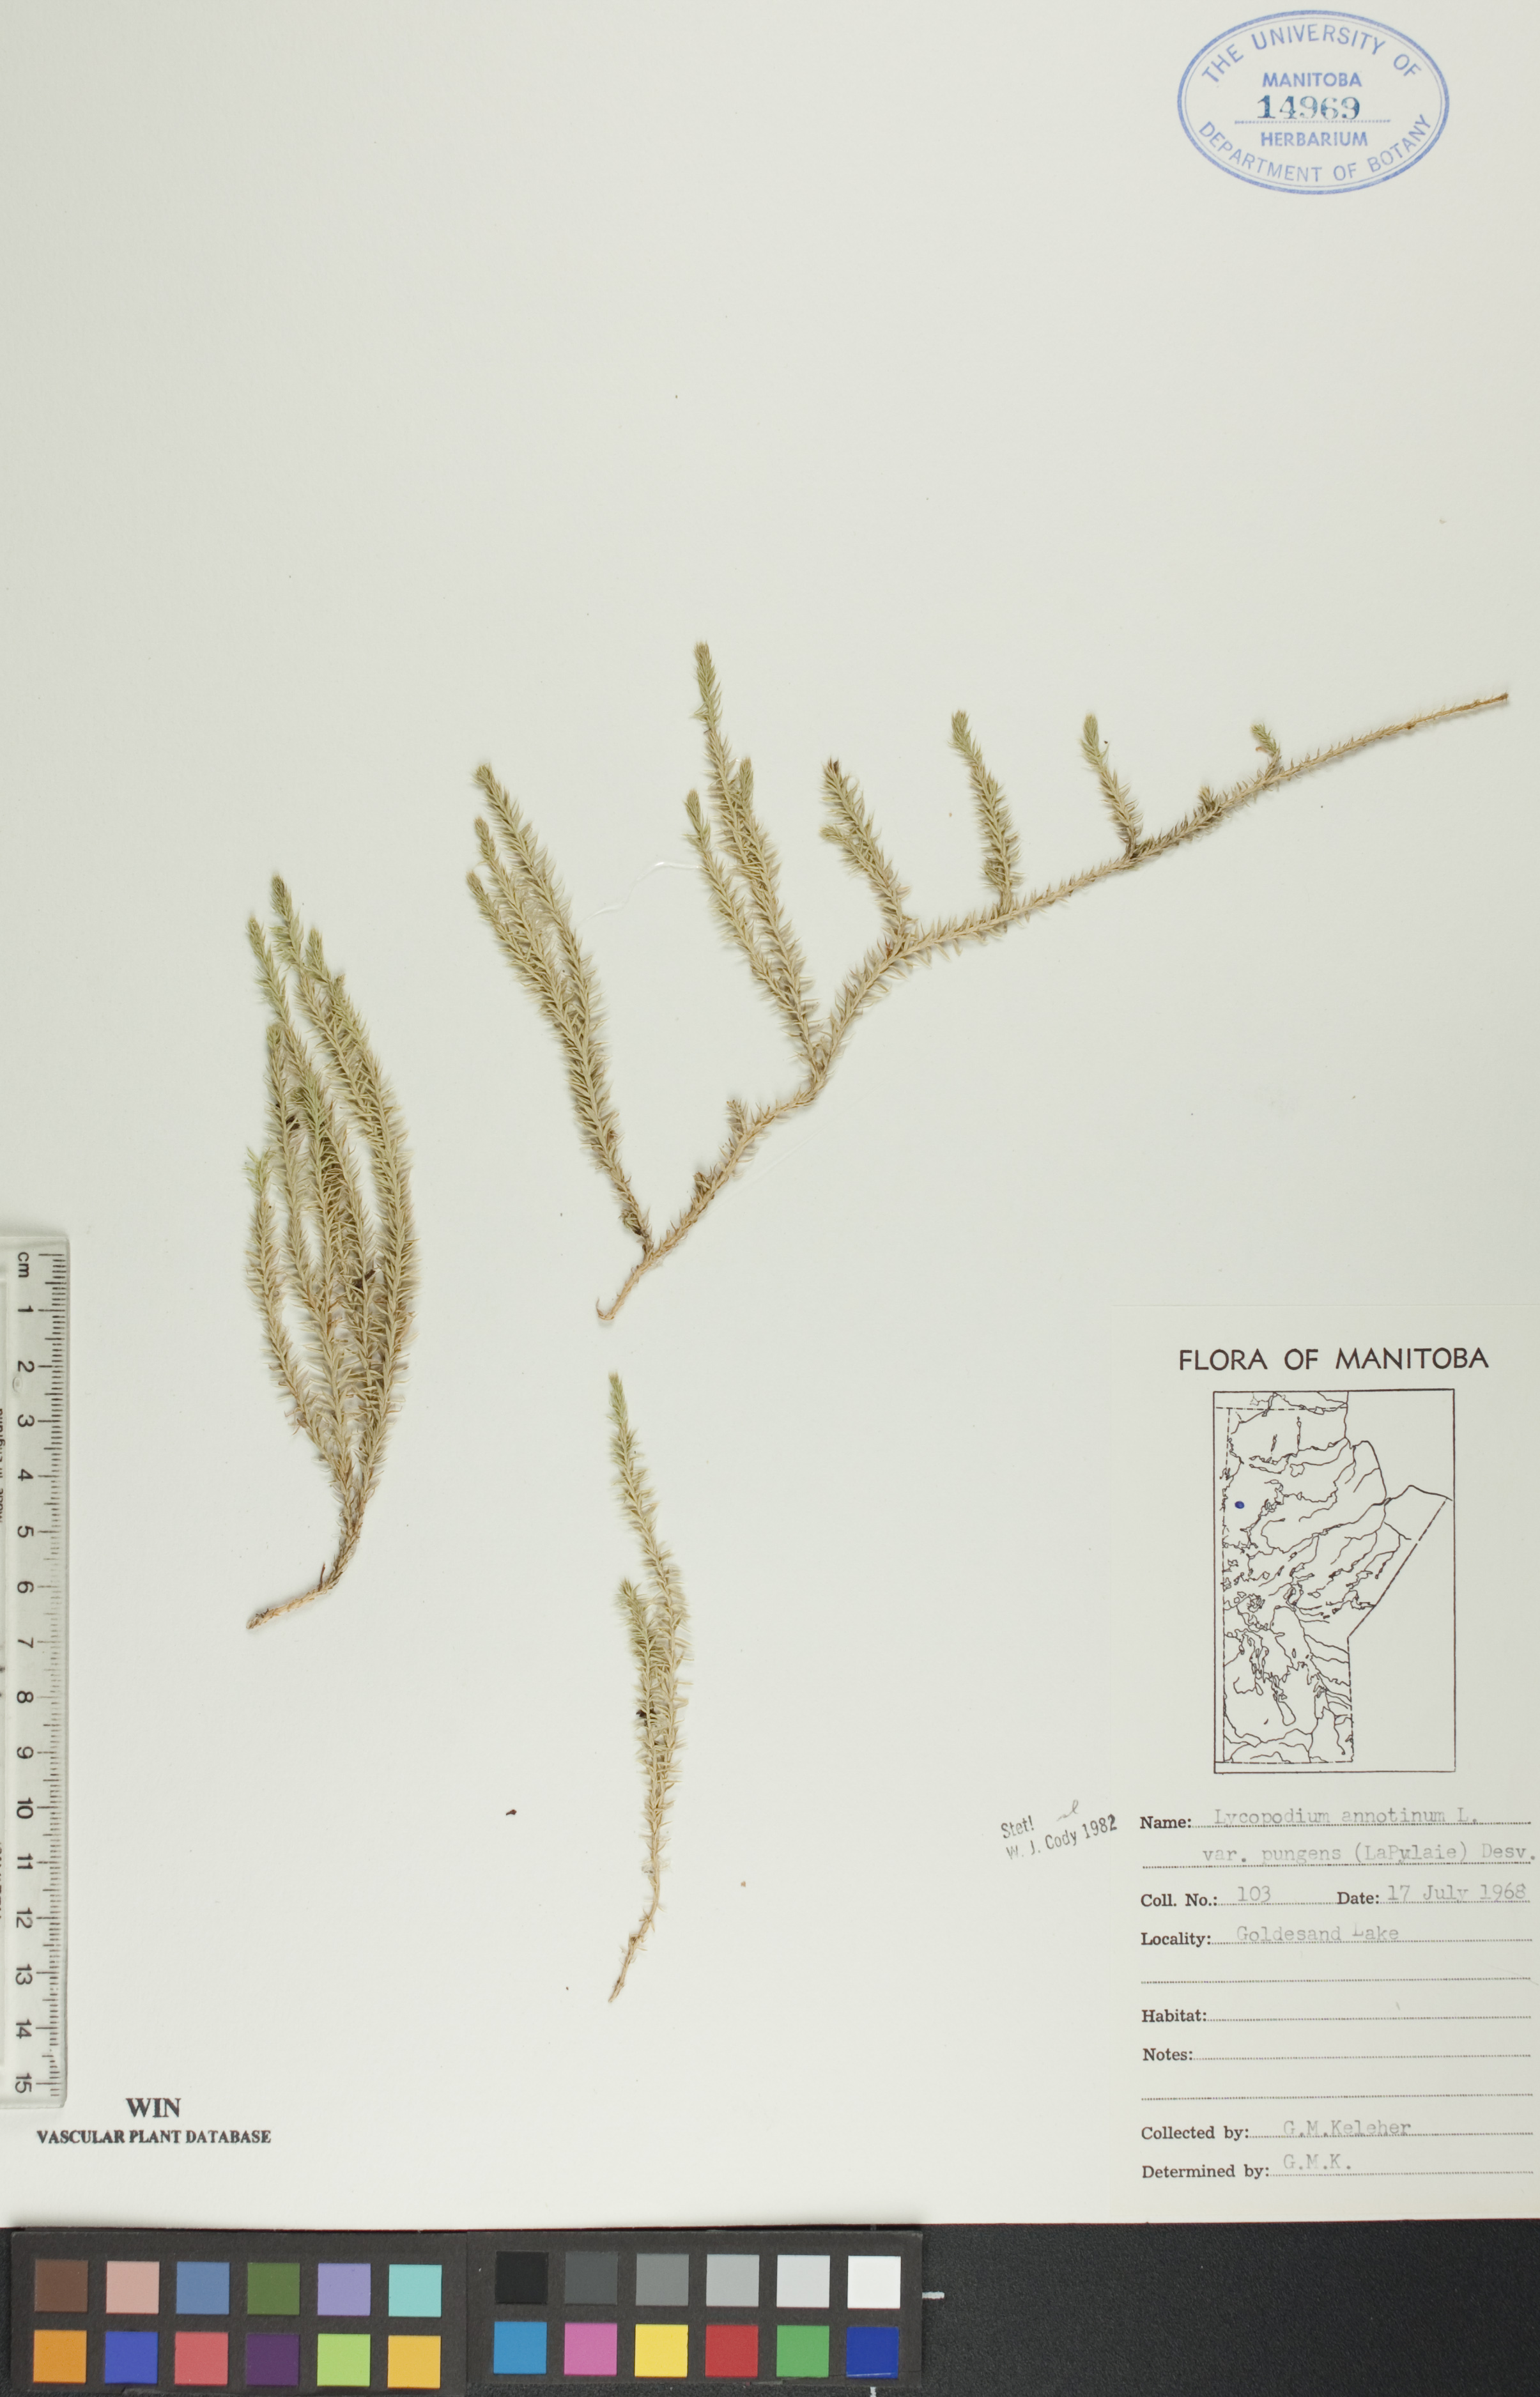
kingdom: Plantae
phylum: Tracheophyta
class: Lycopodiopsida
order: Lycopodiales
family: Lycopodiaceae
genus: Spinulum
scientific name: Spinulum annotinum
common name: Interrupted club-moss
